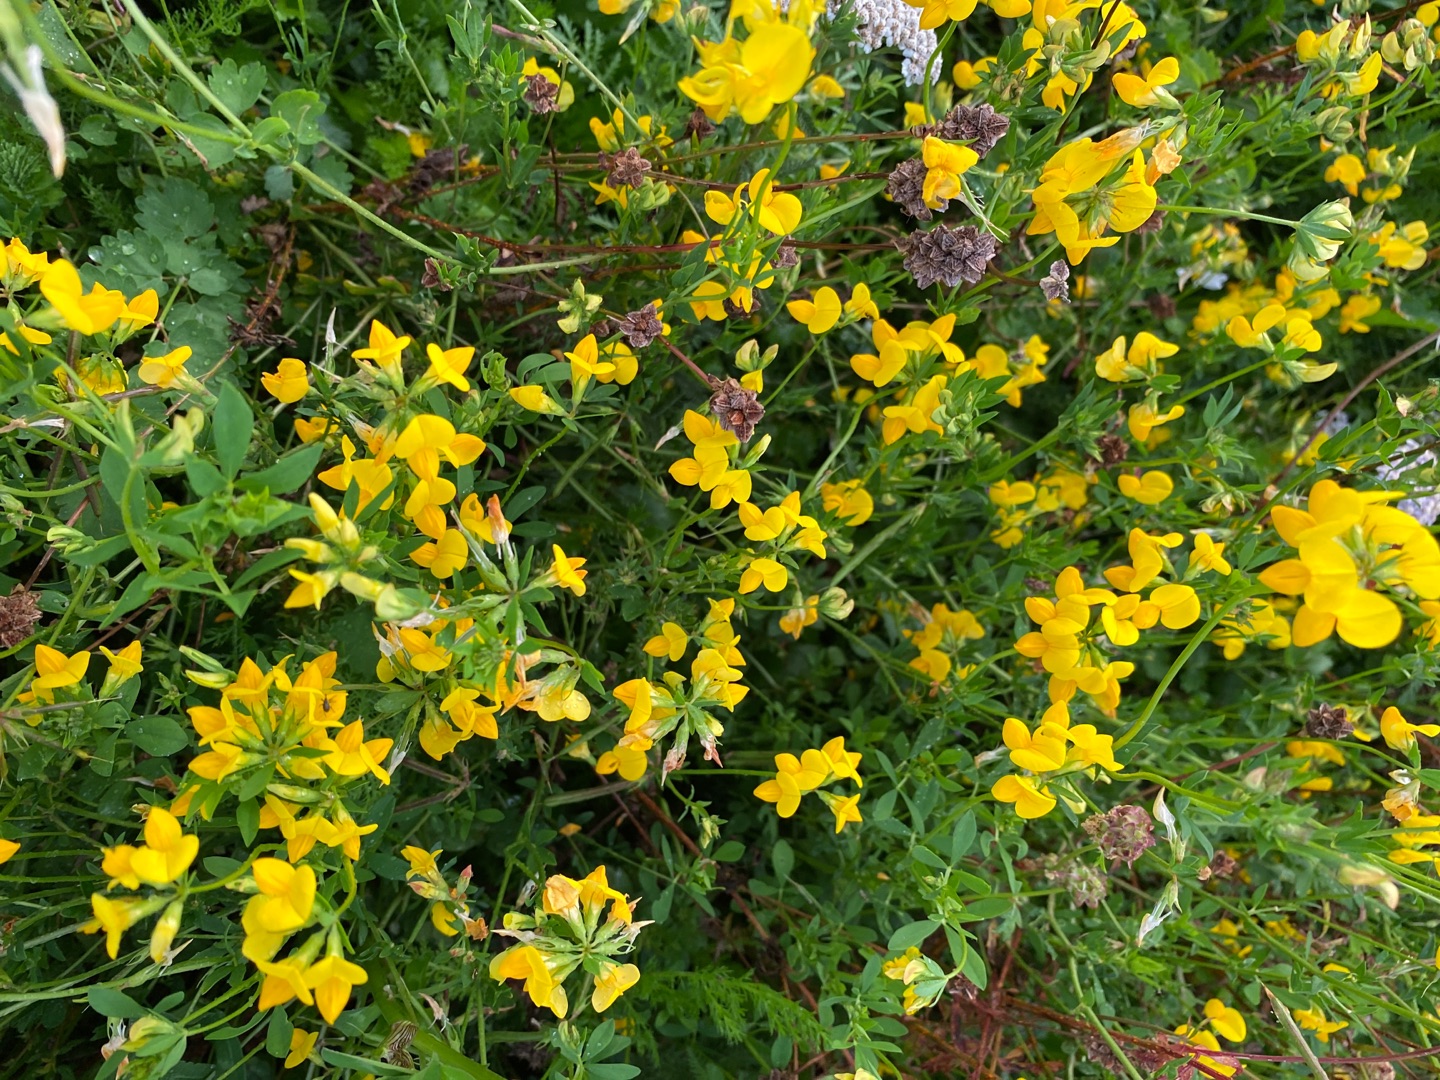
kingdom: Plantae
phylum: Tracheophyta
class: Magnoliopsida
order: Fabales
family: Fabaceae
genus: Lotus
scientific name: Lotus corniculatus
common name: Almindelig kællingetand
